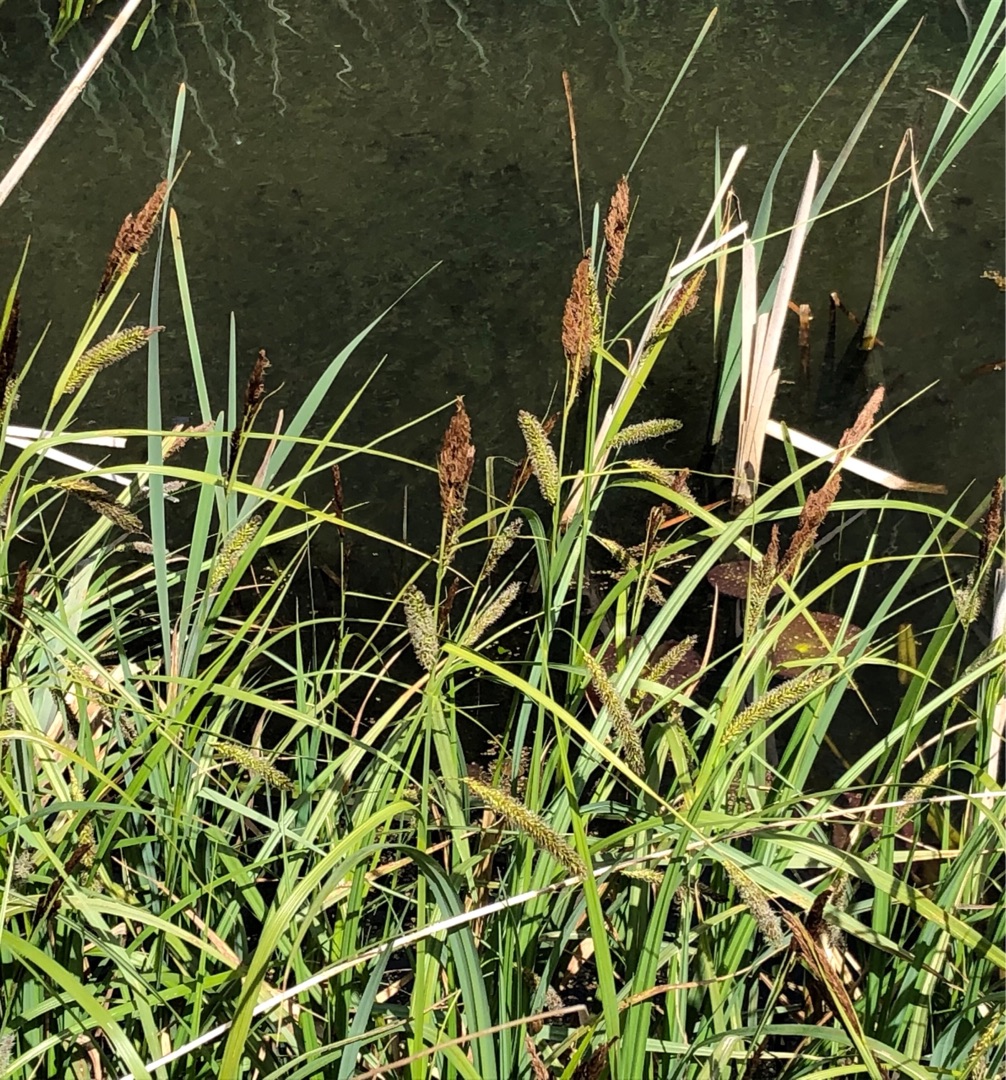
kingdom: Plantae
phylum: Tracheophyta
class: Liliopsida
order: Poales
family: Cyperaceae
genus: Carex
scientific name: Carex acutiformis
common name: Kær-star
